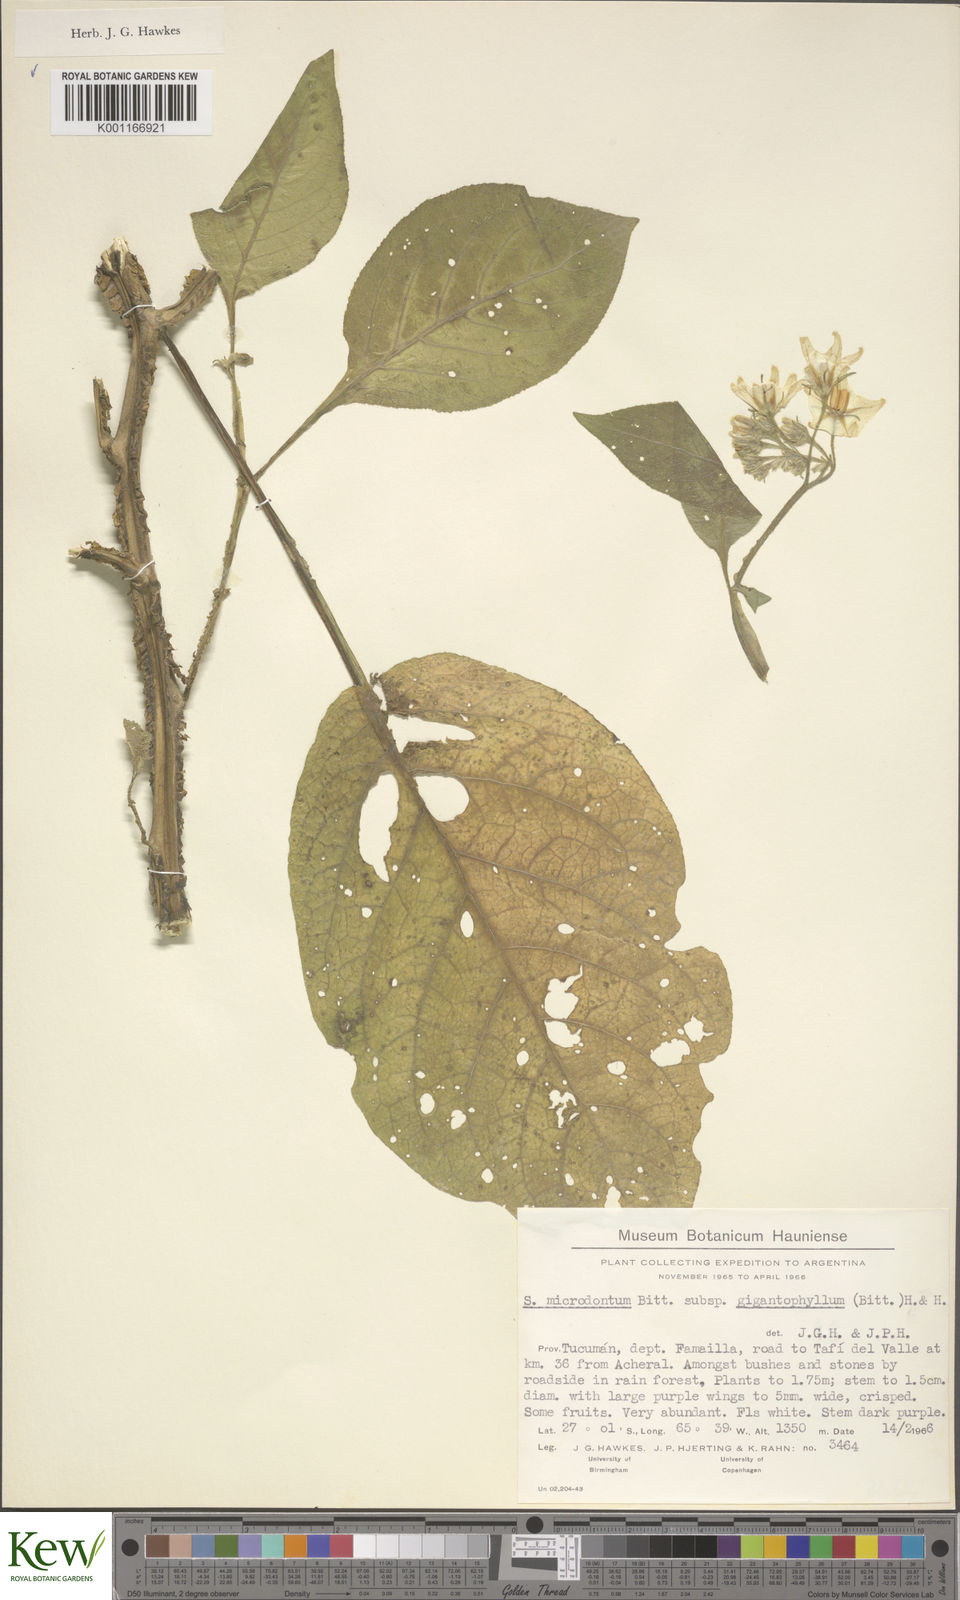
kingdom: Plantae
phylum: Tracheophyta
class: Magnoliopsida
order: Solanales
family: Solanaceae
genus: Solanum
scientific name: Solanum microdontum
